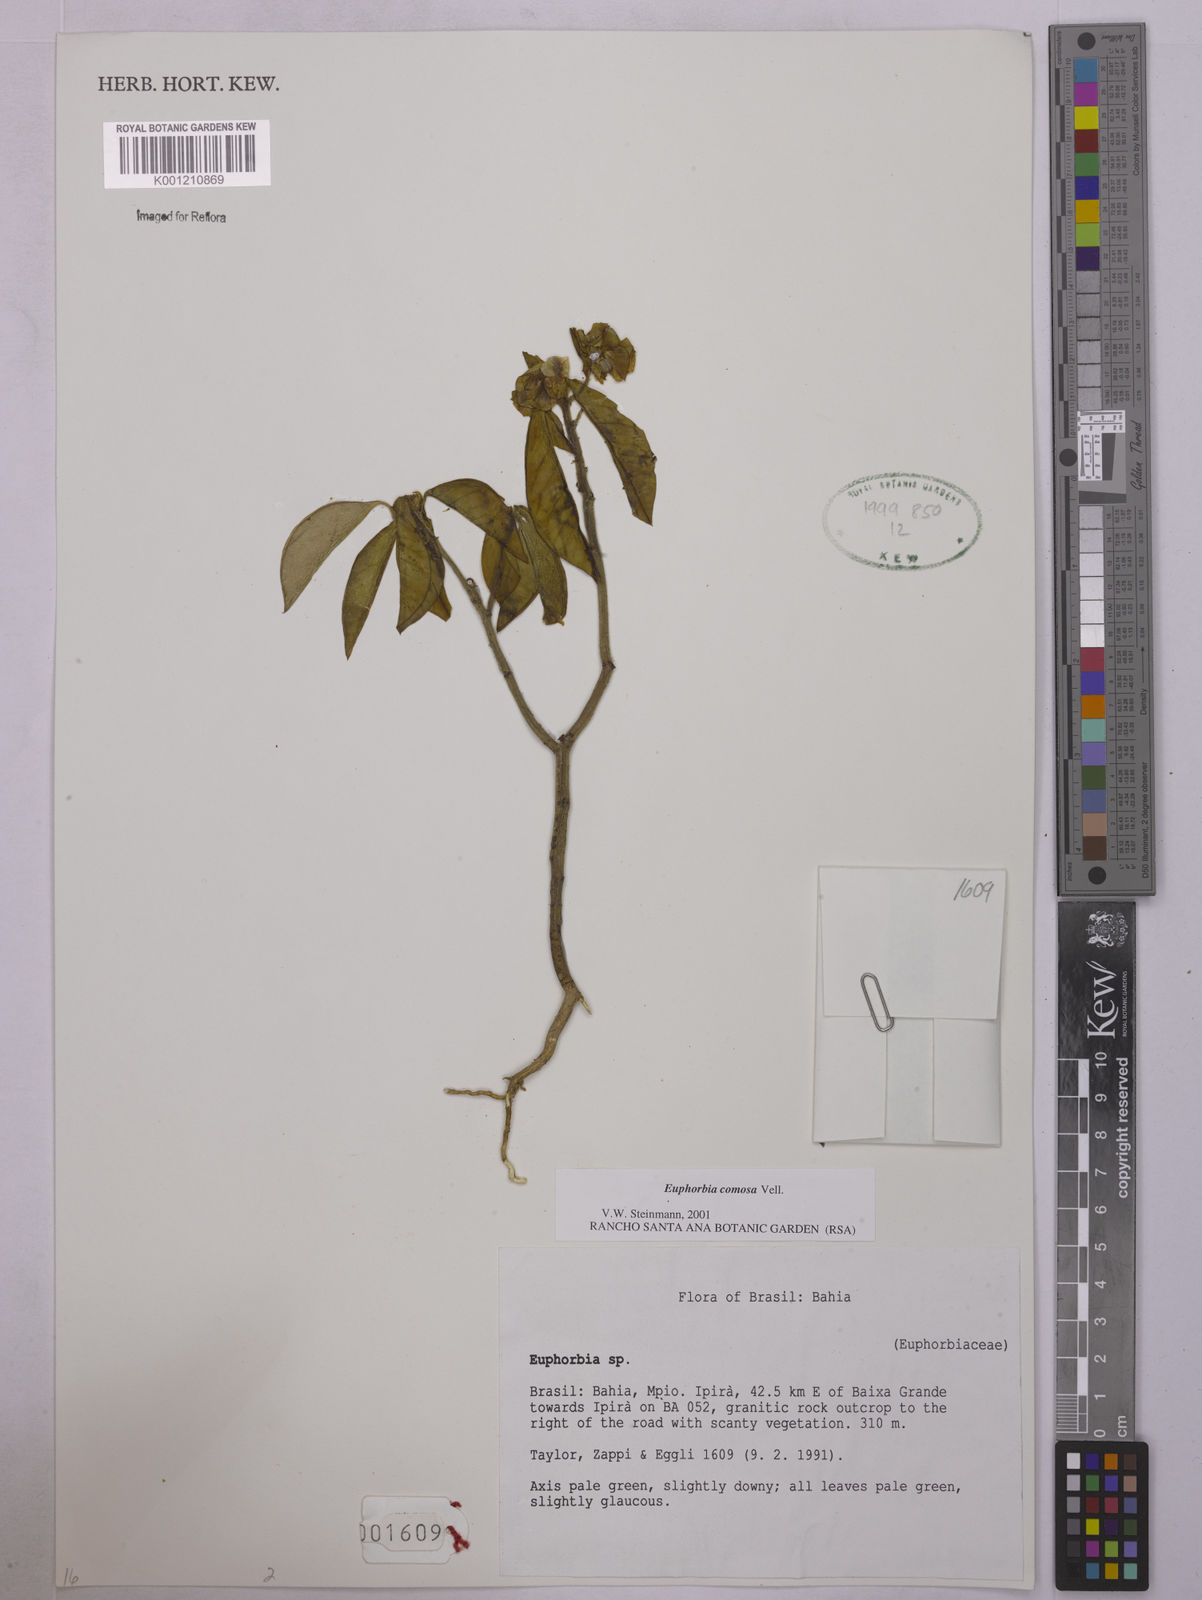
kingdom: Plantae
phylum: Tracheophyta
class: Magnoliopsida
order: Malpighiales
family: Euphorbiaceae
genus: Euphorbia
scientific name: Euphorbia comosa
